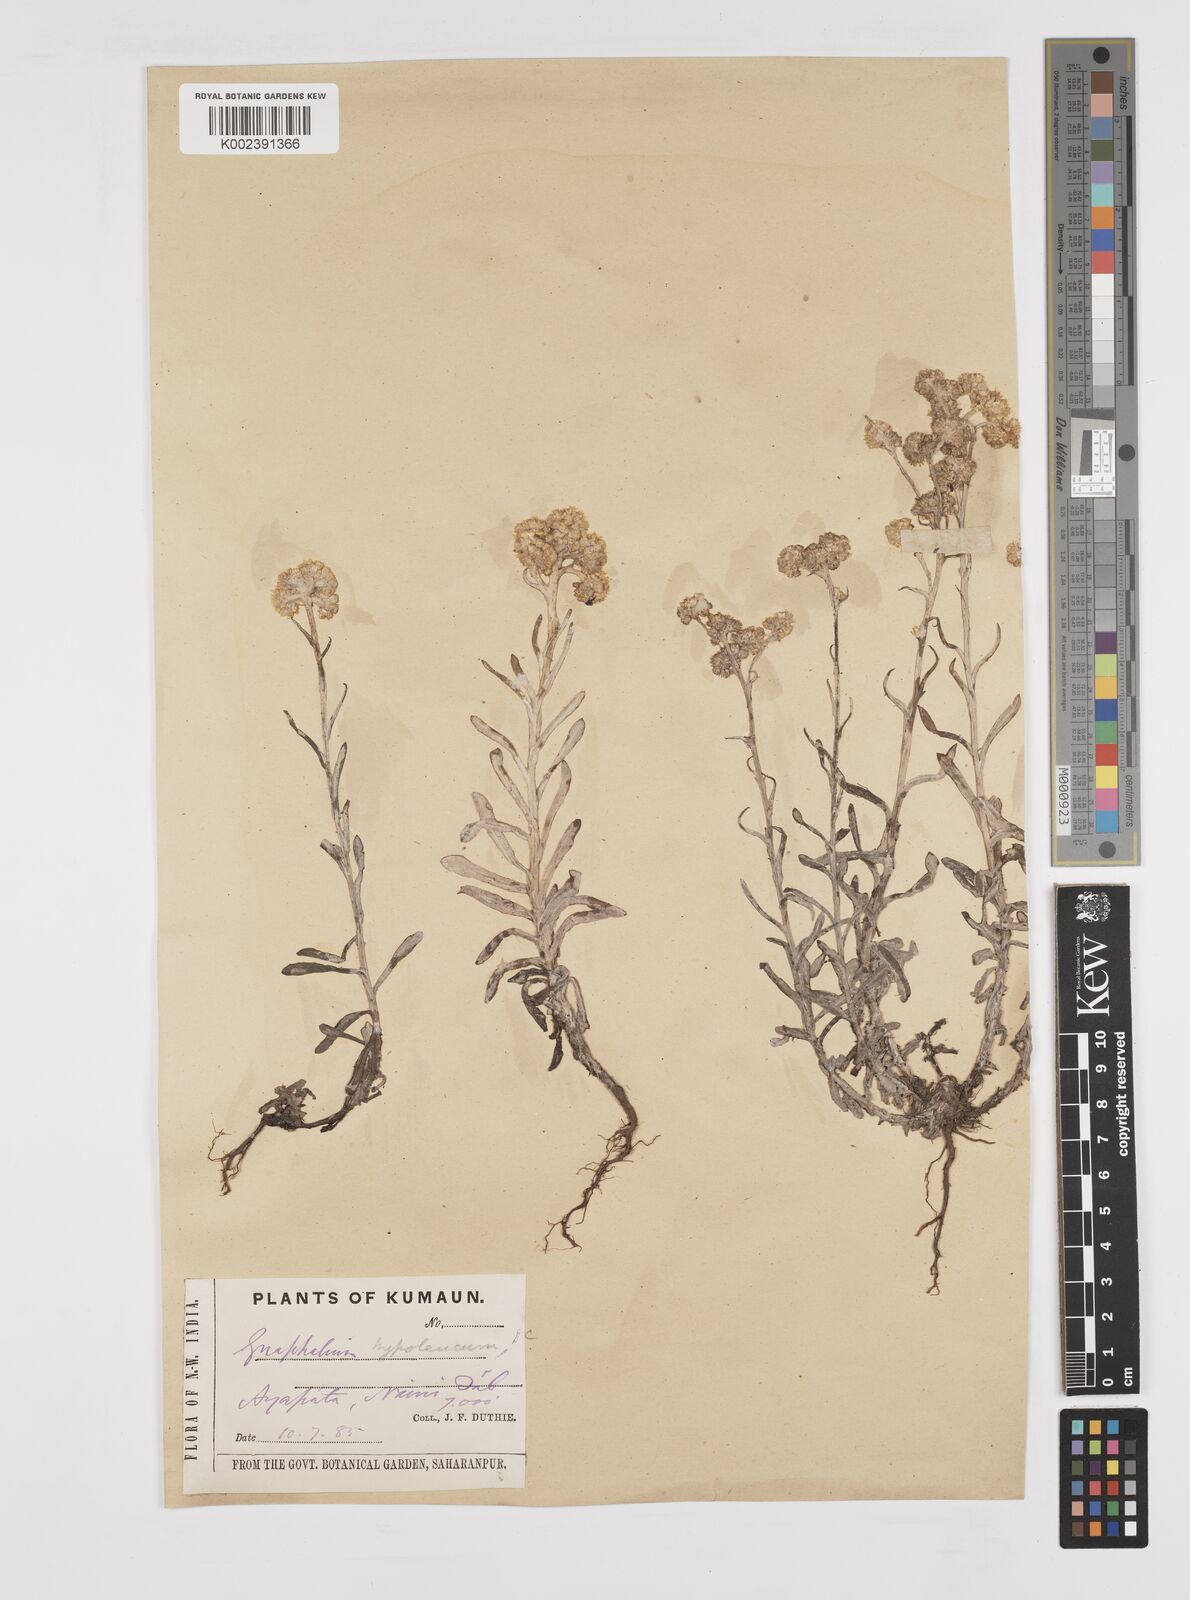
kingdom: Plantae
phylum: Tracheophyta
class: Magnoliopsida
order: Asterales
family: Asteraceae
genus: Pseudognaphalium
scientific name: Pseudognaphalium hypoleucum
